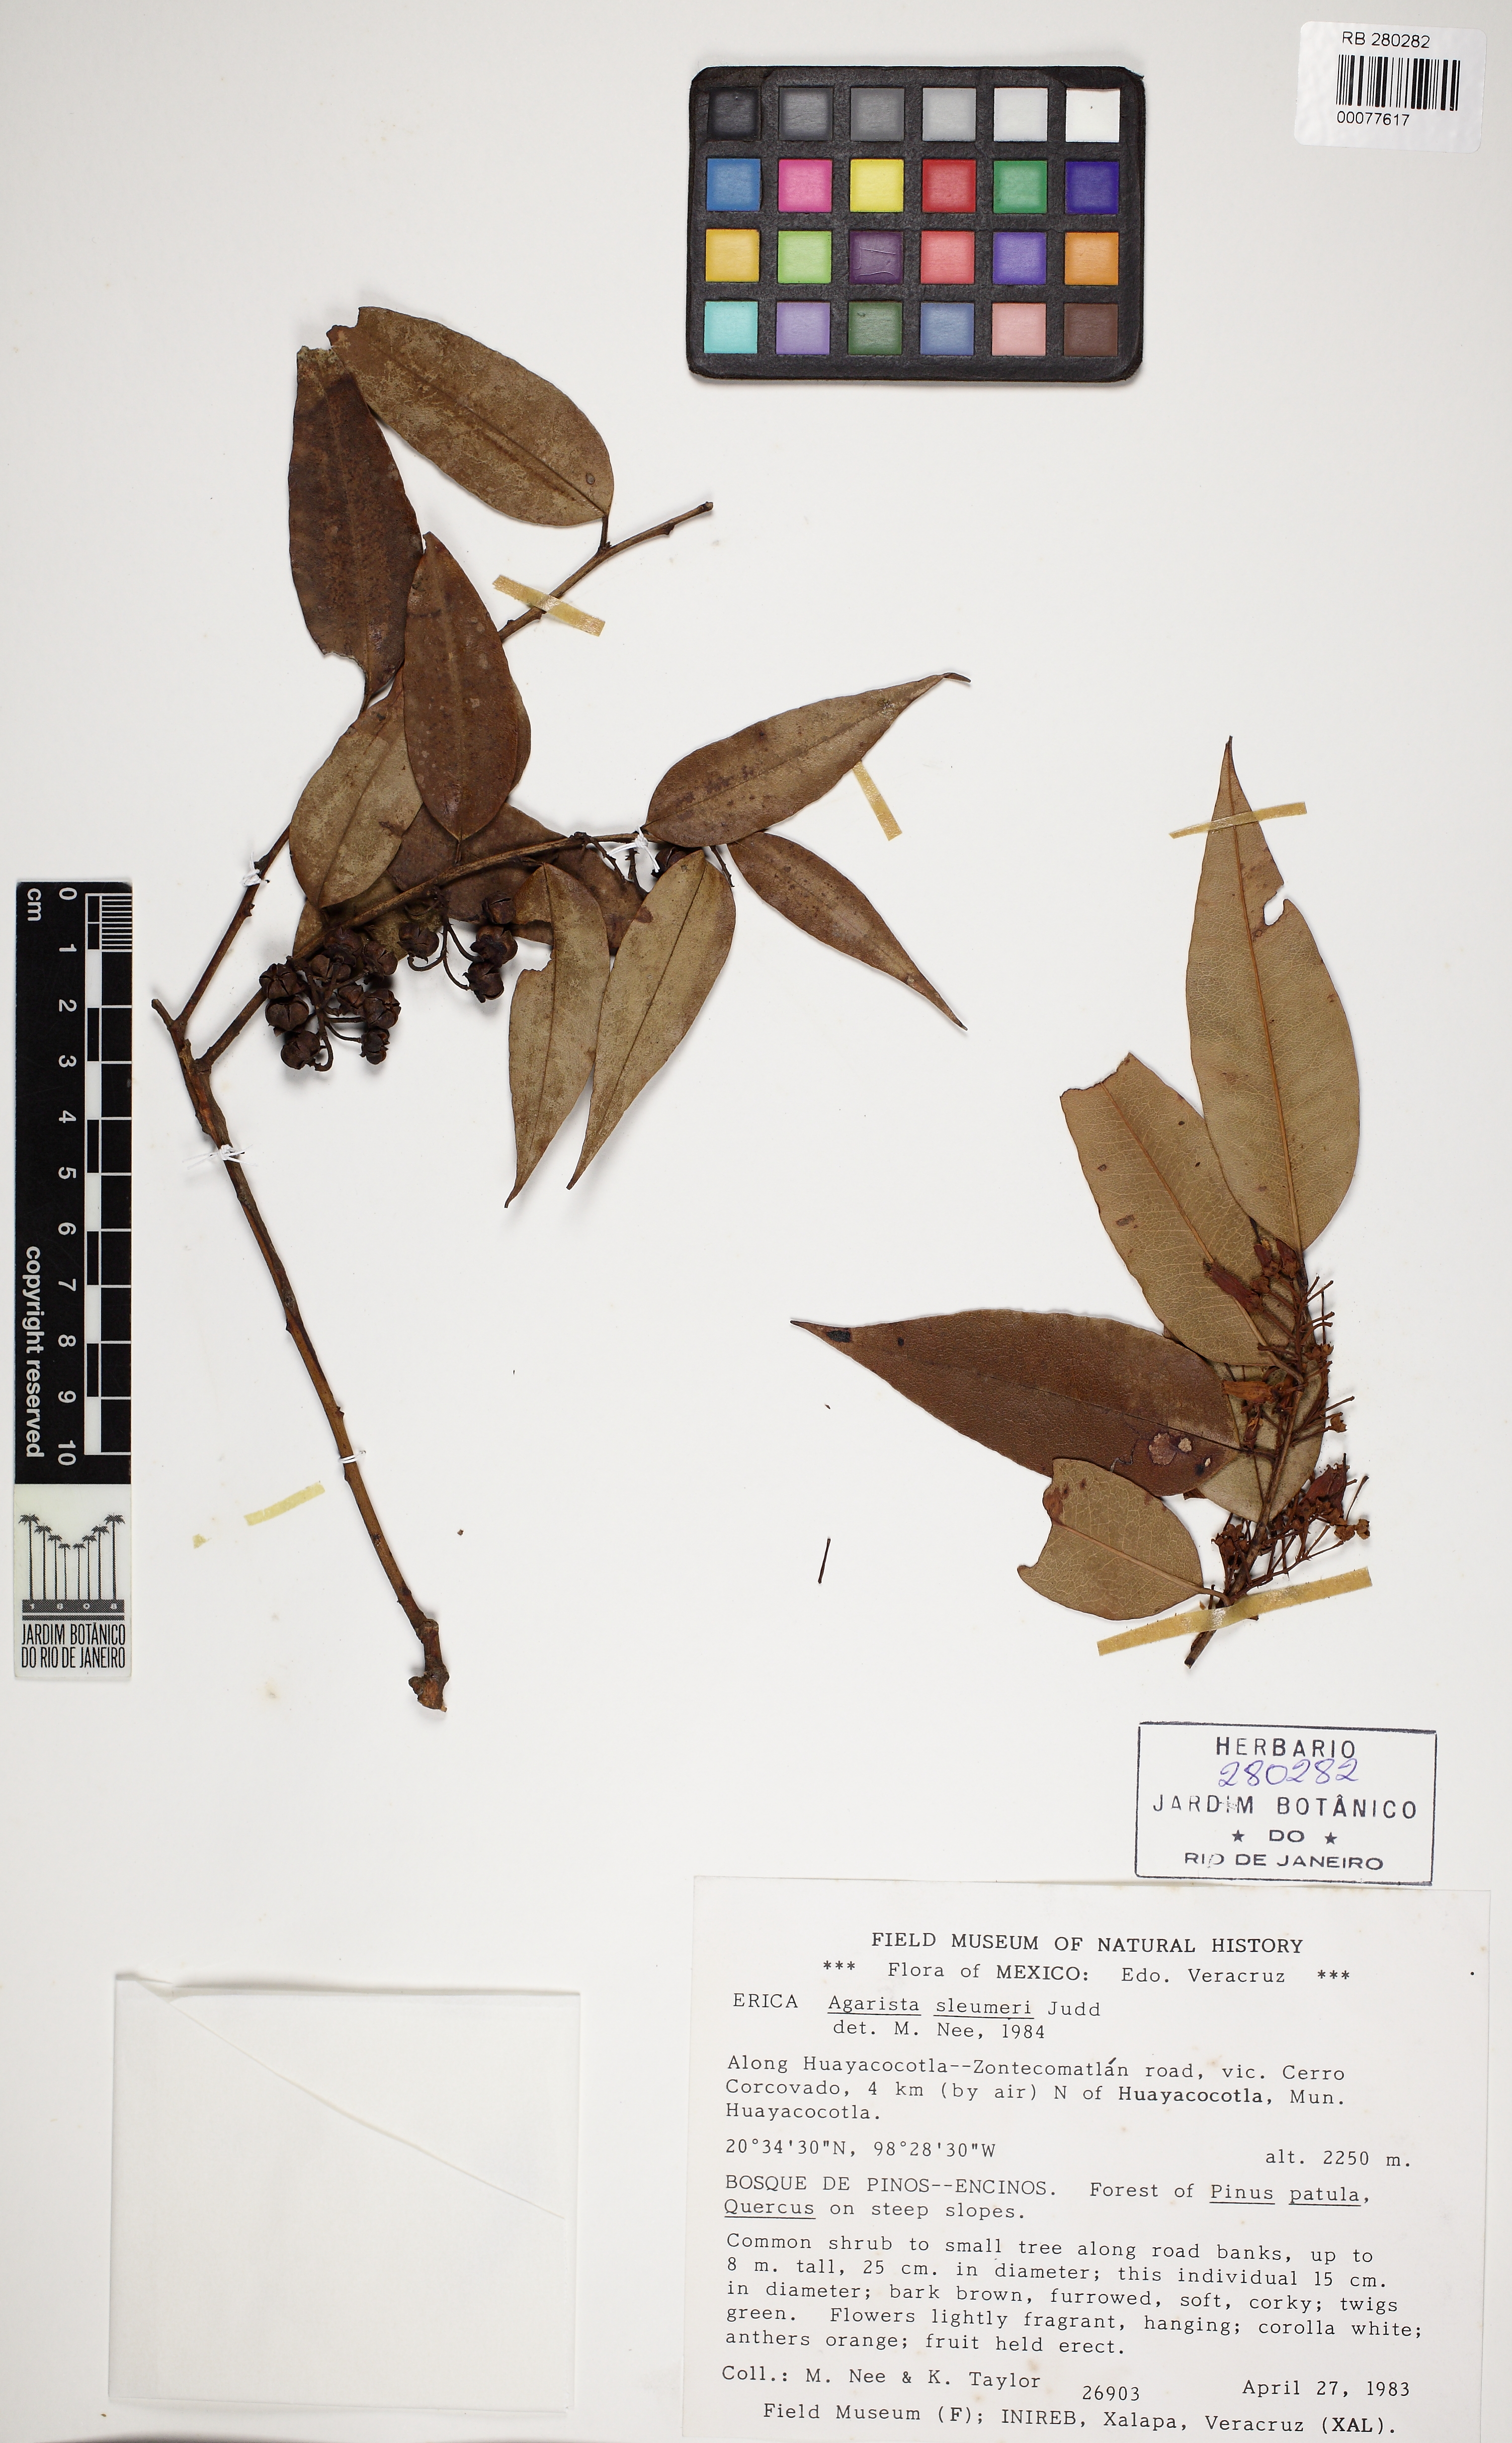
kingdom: Plantae
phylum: Tracheophyta
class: Magnoliopsida
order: Ericales
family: Ericaceae
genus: Agarista
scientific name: Agarista sleumeri
